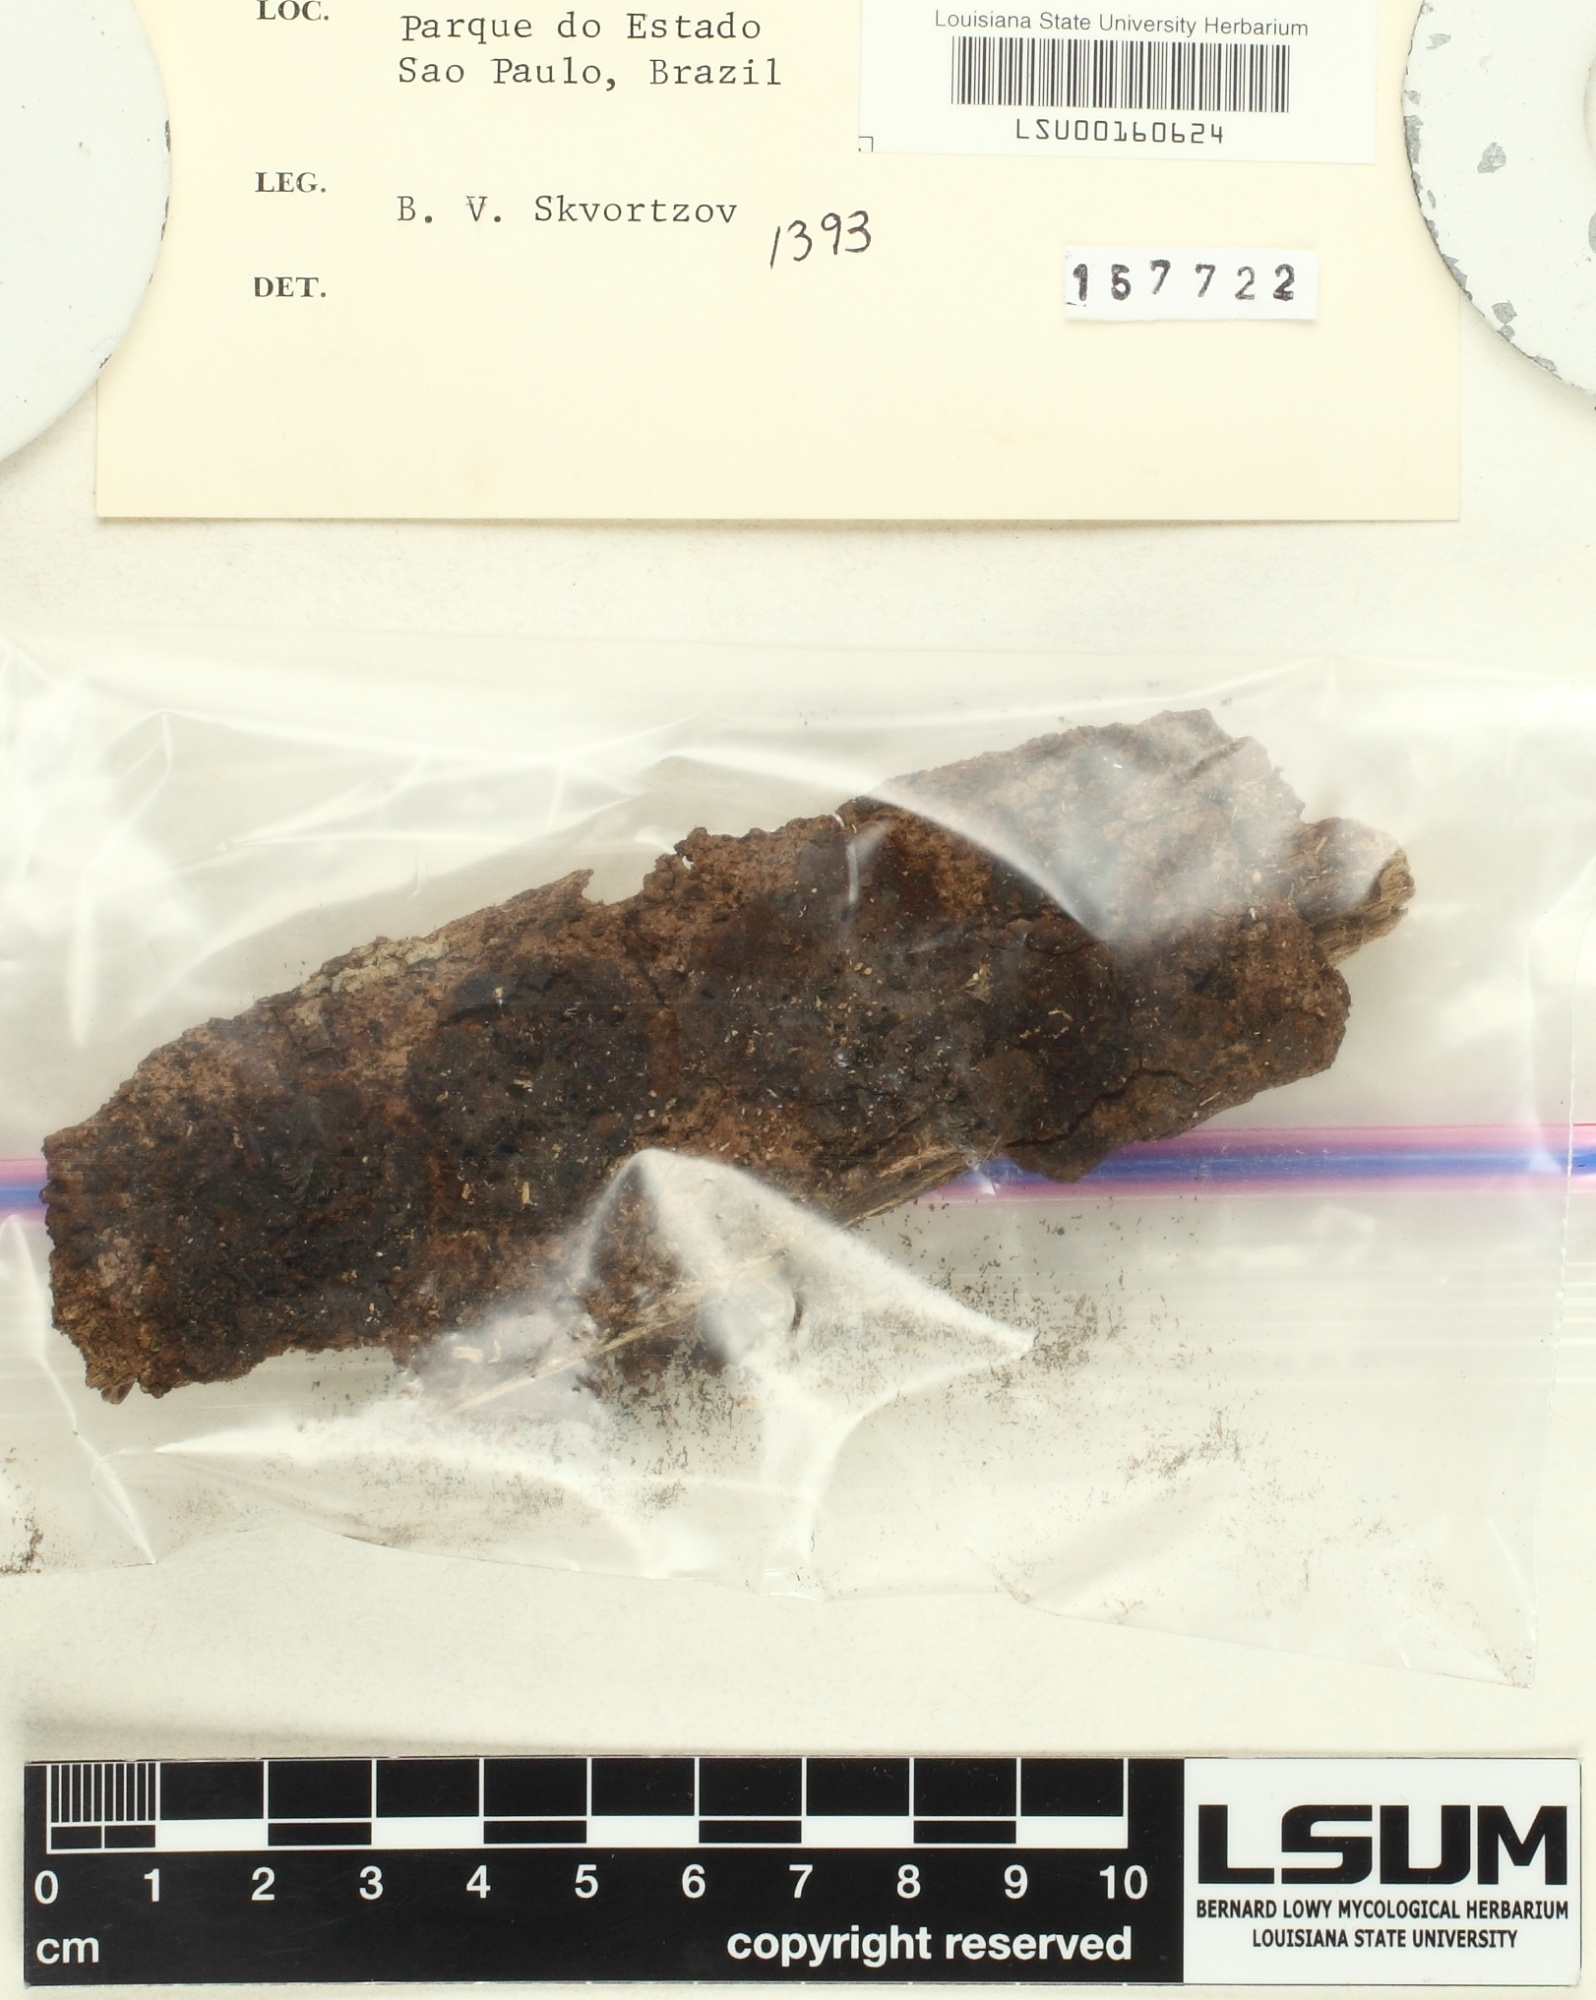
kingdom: Fungi
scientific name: Fungi
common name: Fungi
